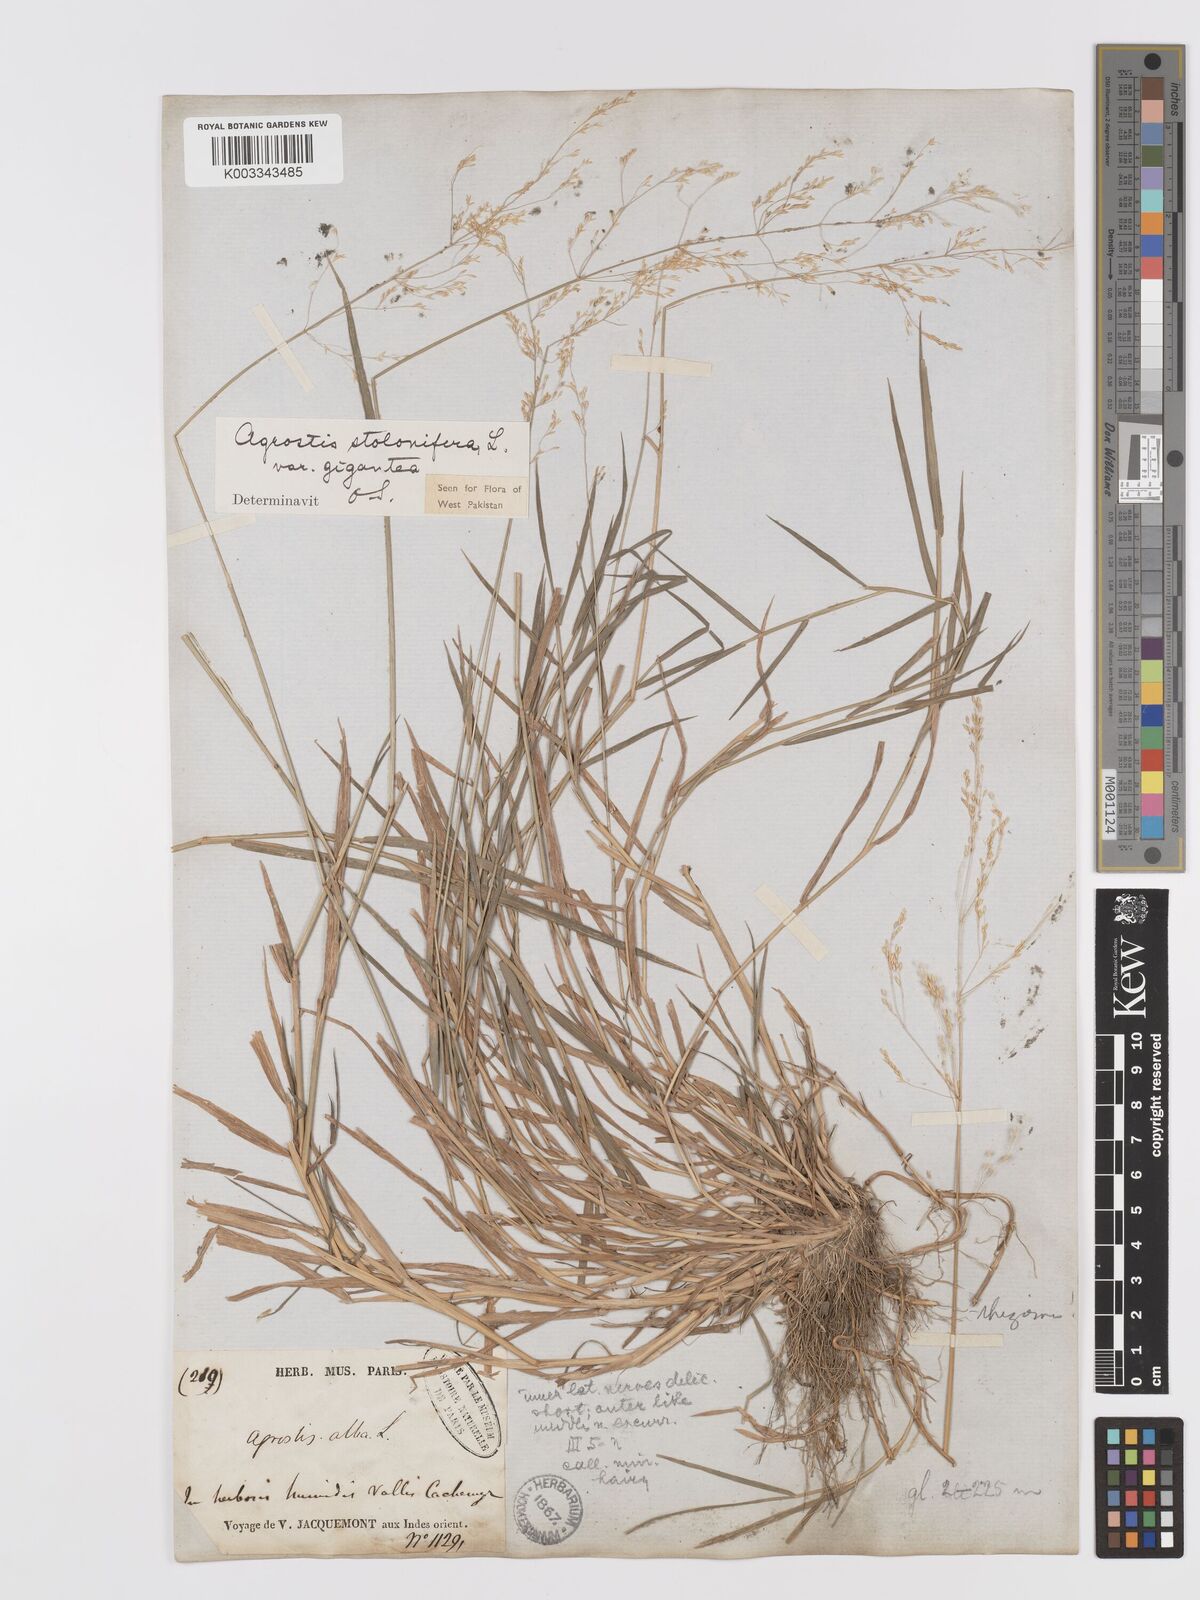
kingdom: Plantae
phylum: Tracheophyta
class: Liliopsida
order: Poales
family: Poaceae
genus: Agrostis
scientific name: Agrostis gigantea
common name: Black bent
